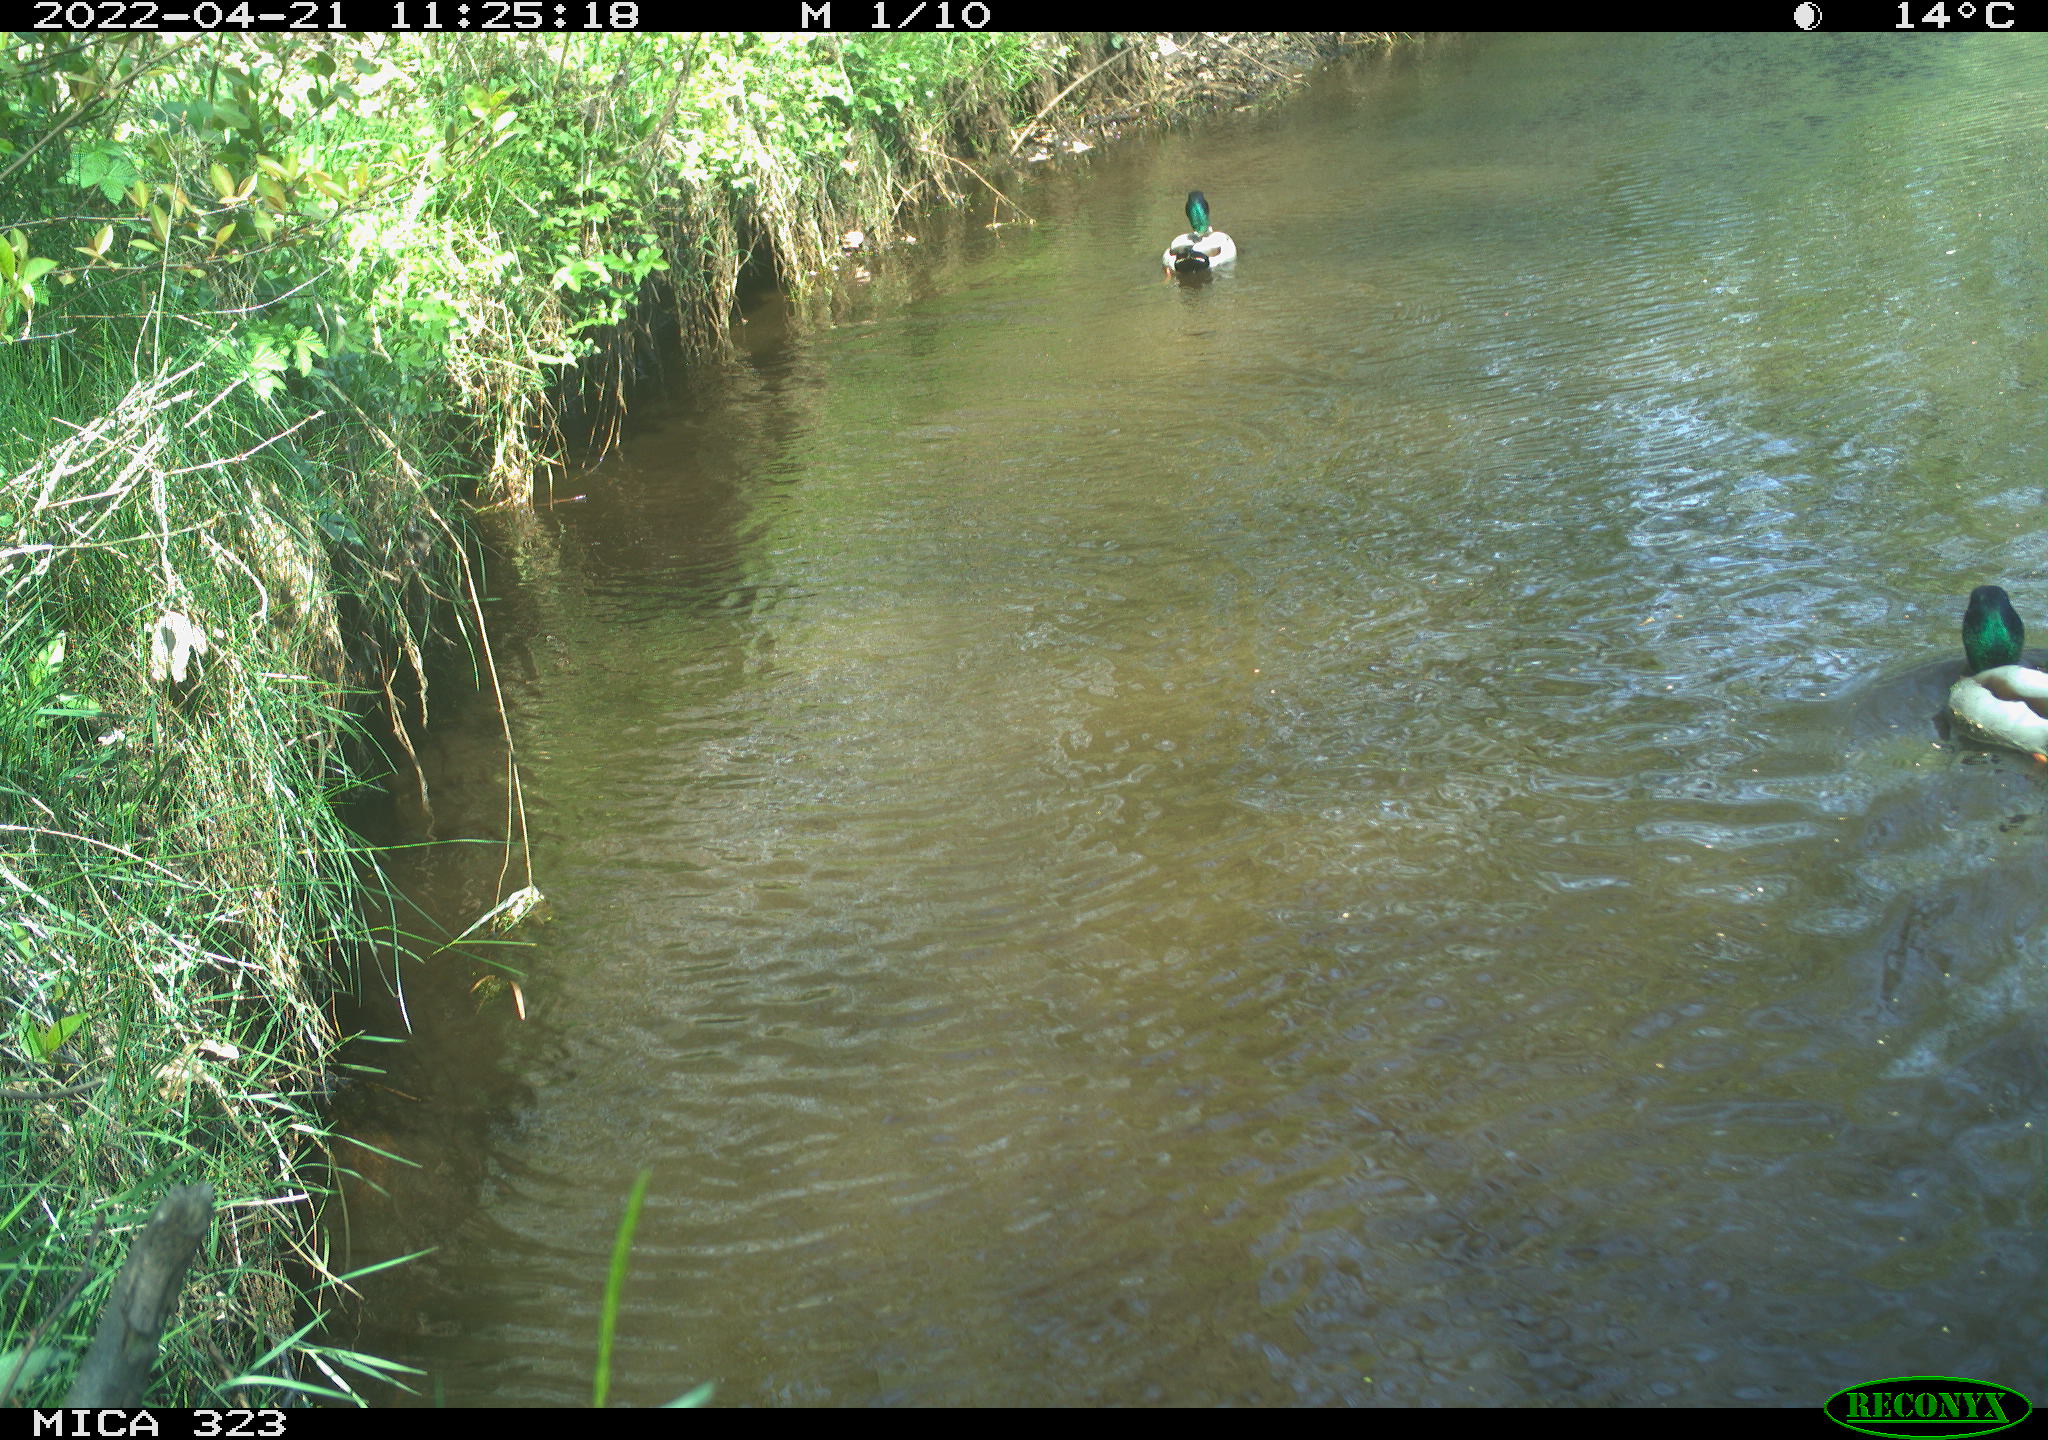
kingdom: Animalia
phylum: Chordata
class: Aves
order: Anseriformes
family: Anatidae
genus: Anas
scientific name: Anas platyrhynchos
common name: Mallard
